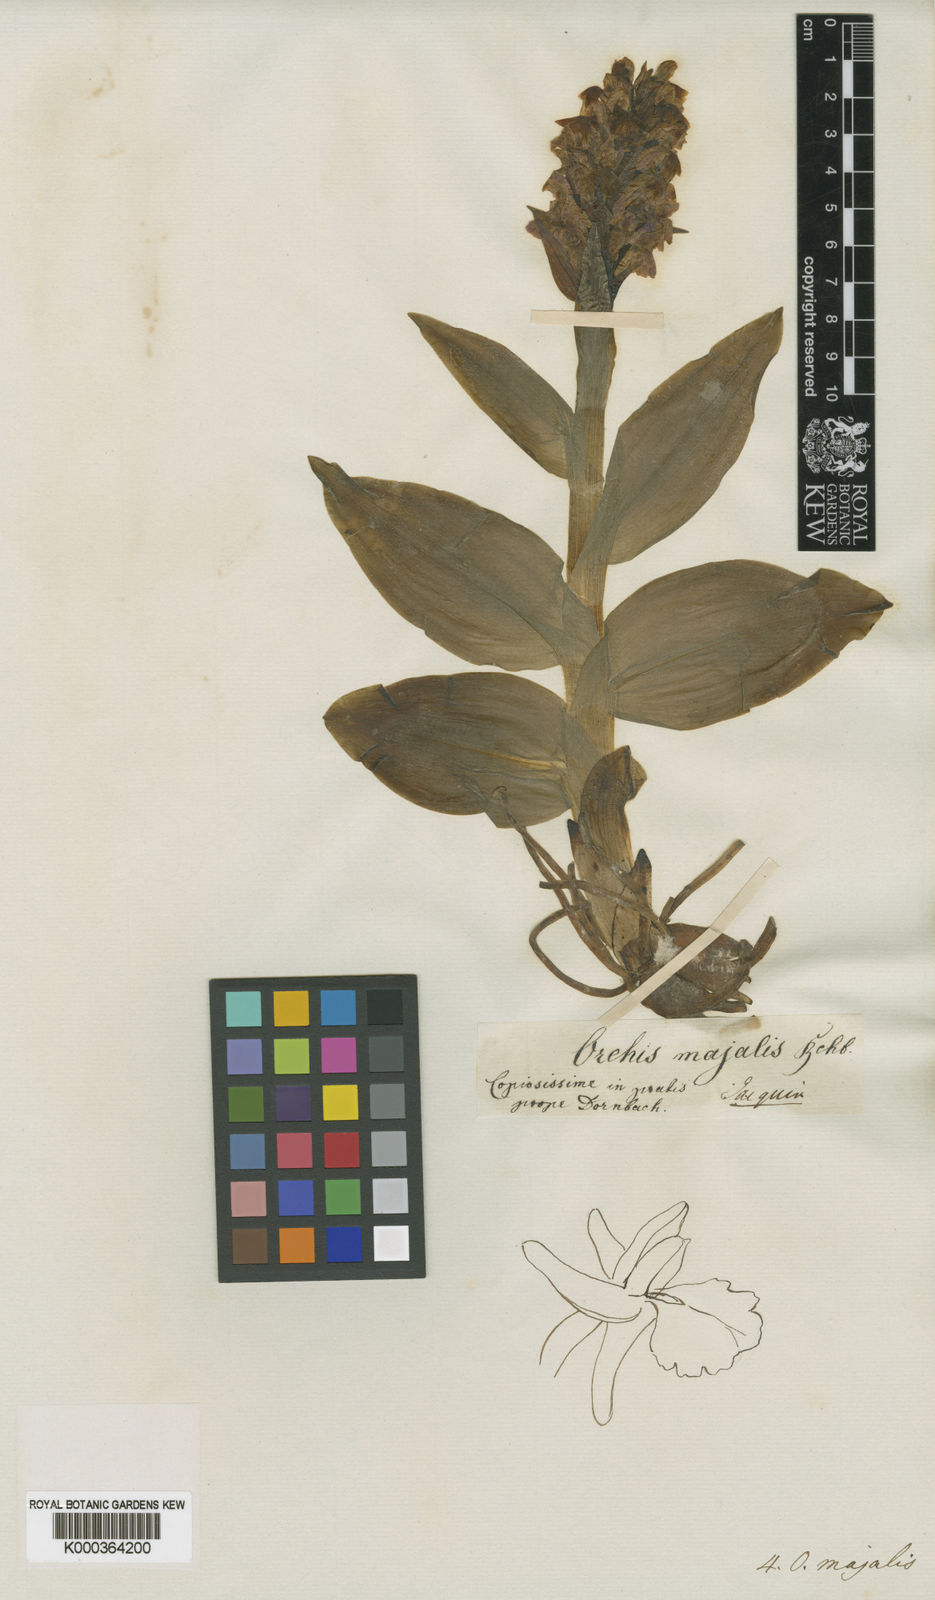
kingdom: Plantae
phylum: Tracheophyta
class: Liliopsida
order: Asparagales
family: Orchidaceae
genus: Dactylorhiza
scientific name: Dactylorhiza majalis
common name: Marsh orchid
